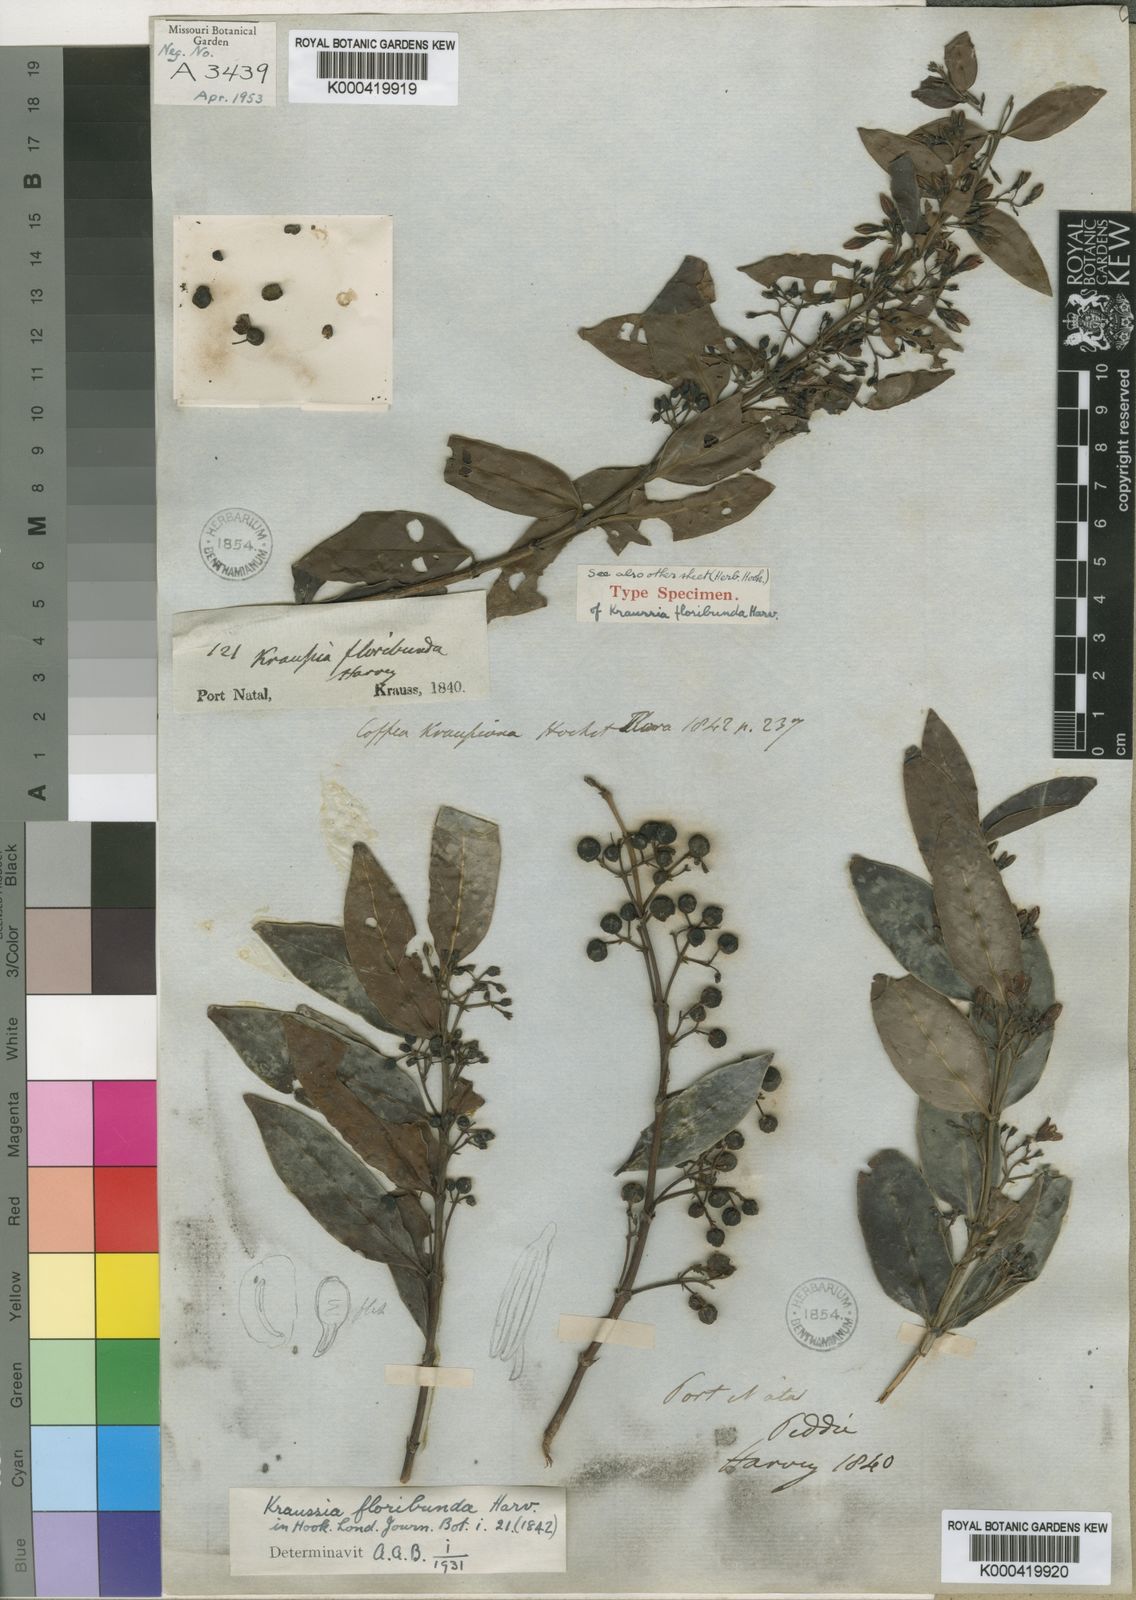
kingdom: Plantae
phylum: Tracheophyta
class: Magnoliopsida
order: Gentianales
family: Rubiaceae
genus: Kraussia
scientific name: Kraussia floribunda
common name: Rhino-coffee
